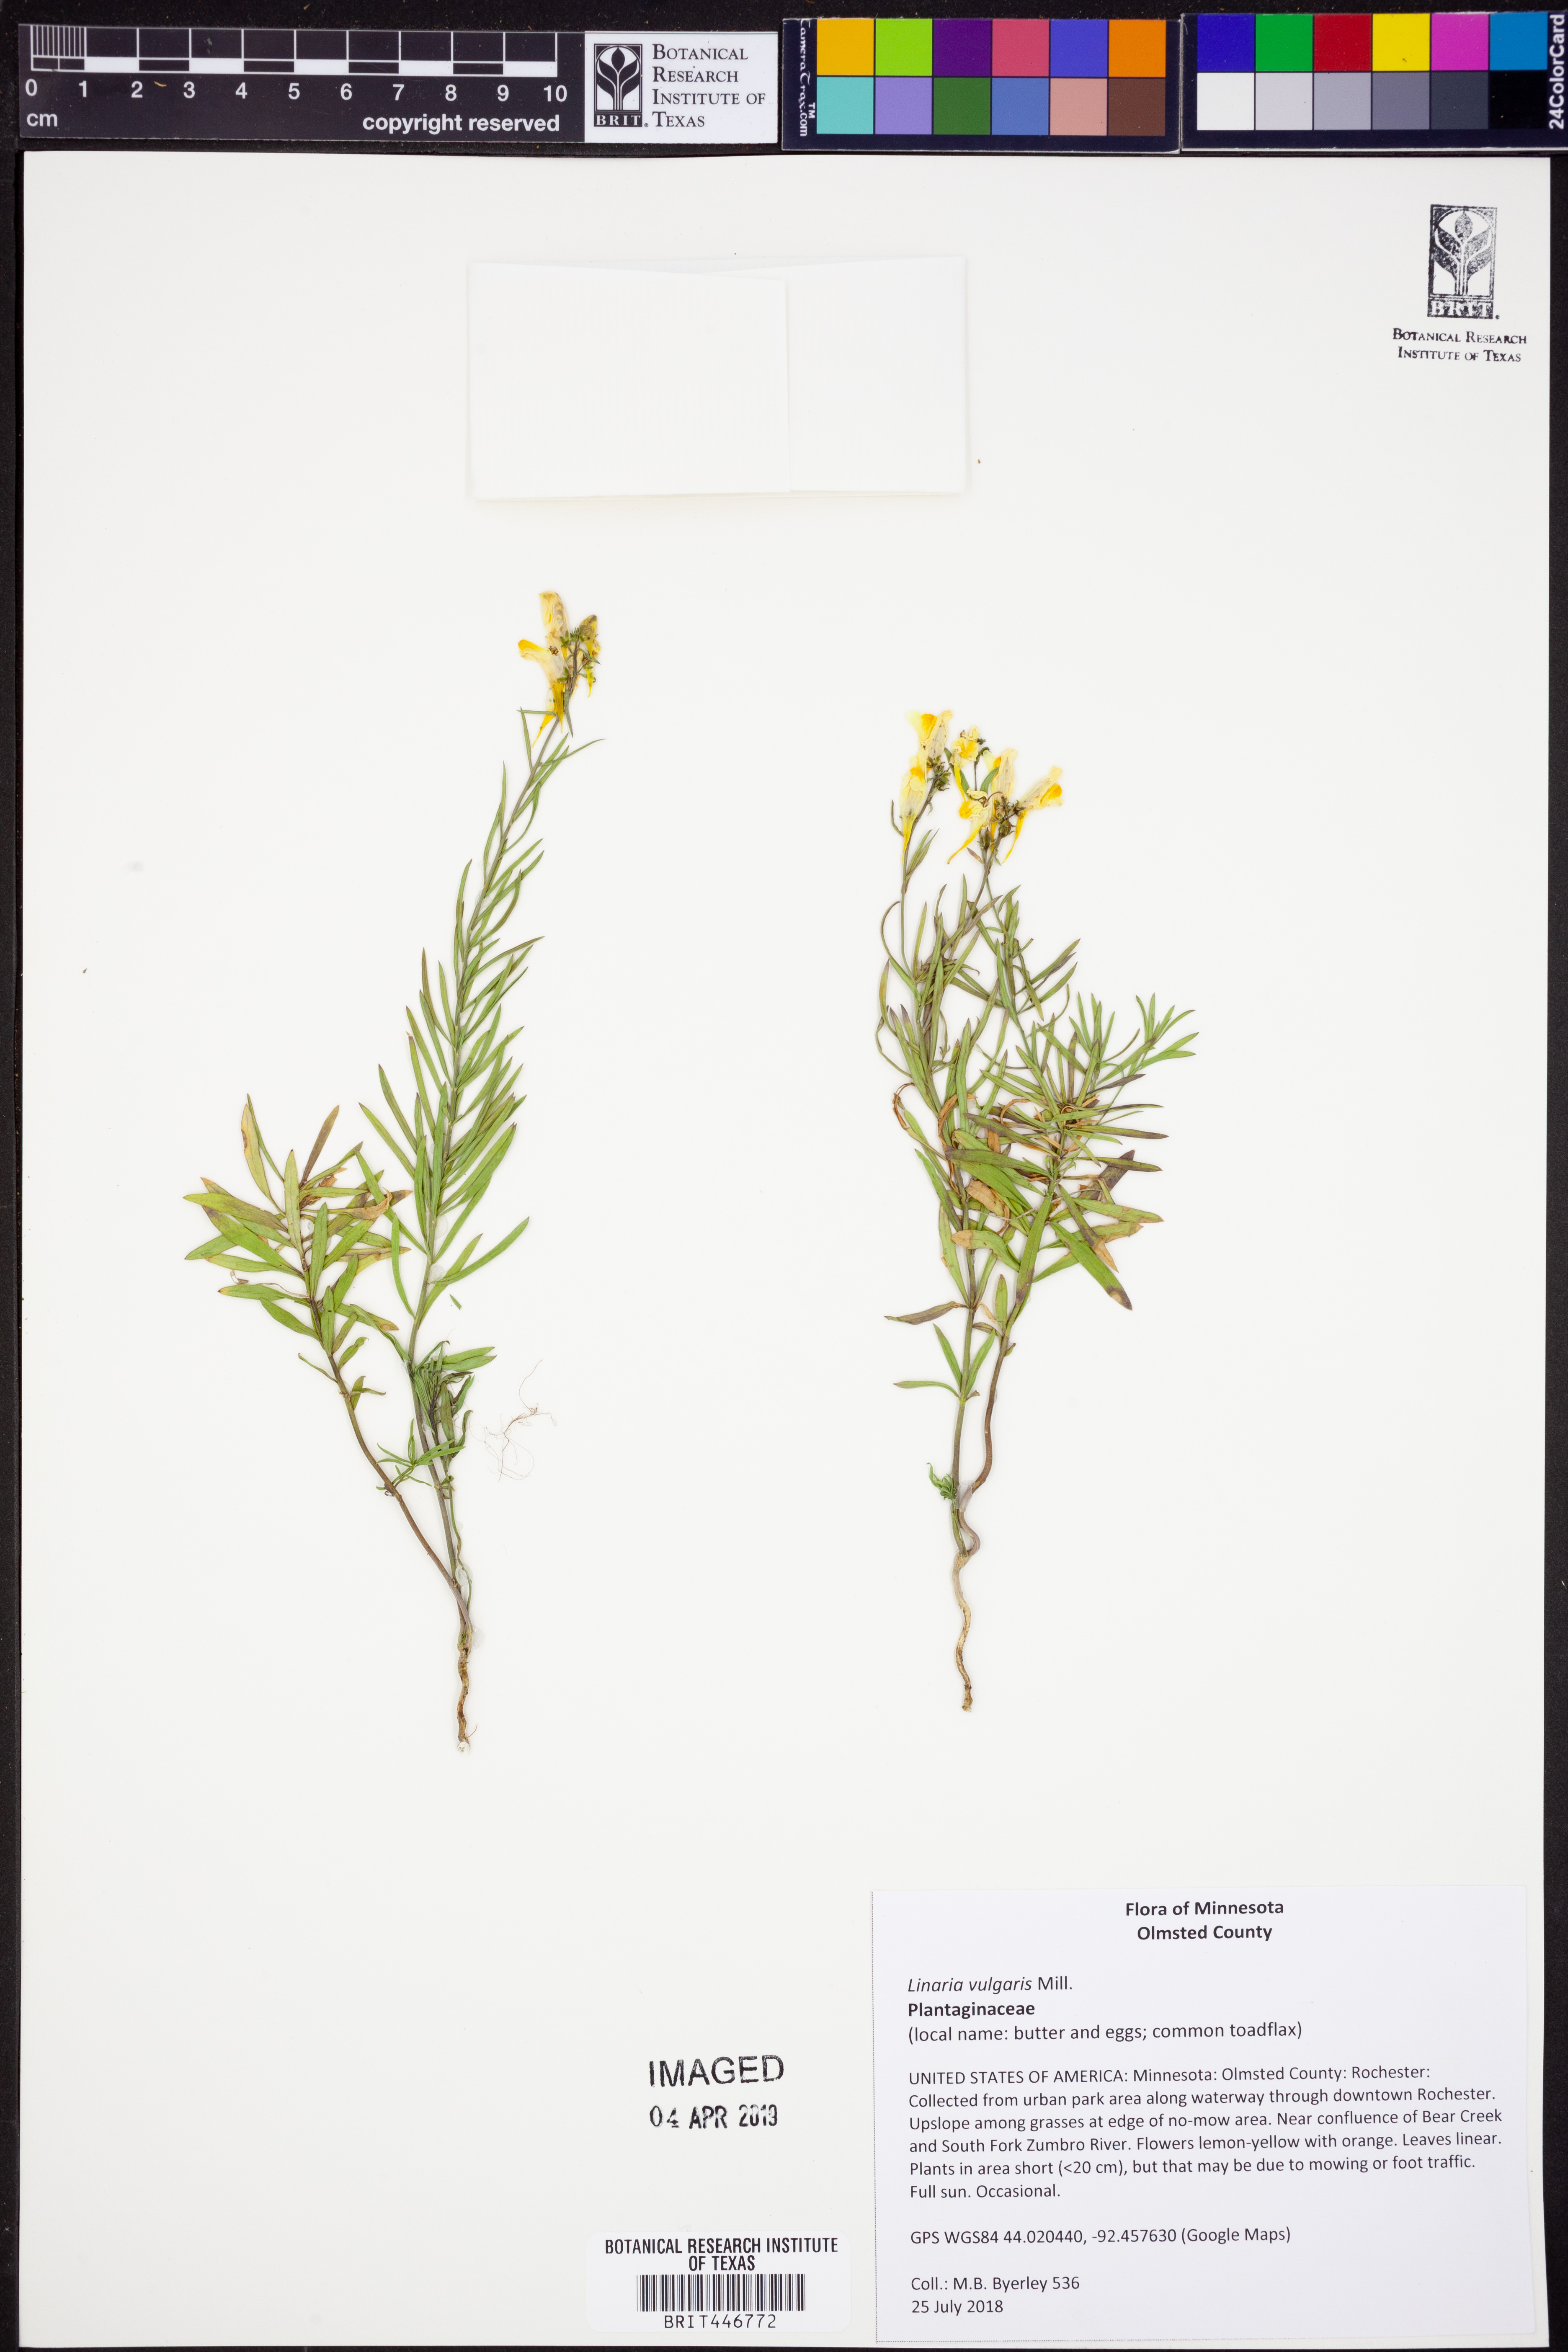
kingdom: Plantae
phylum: Tracheophyta
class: Magnoliopsida
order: Lamiales
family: Plantaginaceae
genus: Linaria
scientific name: Linaria vulgaris
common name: Butter and eggs
